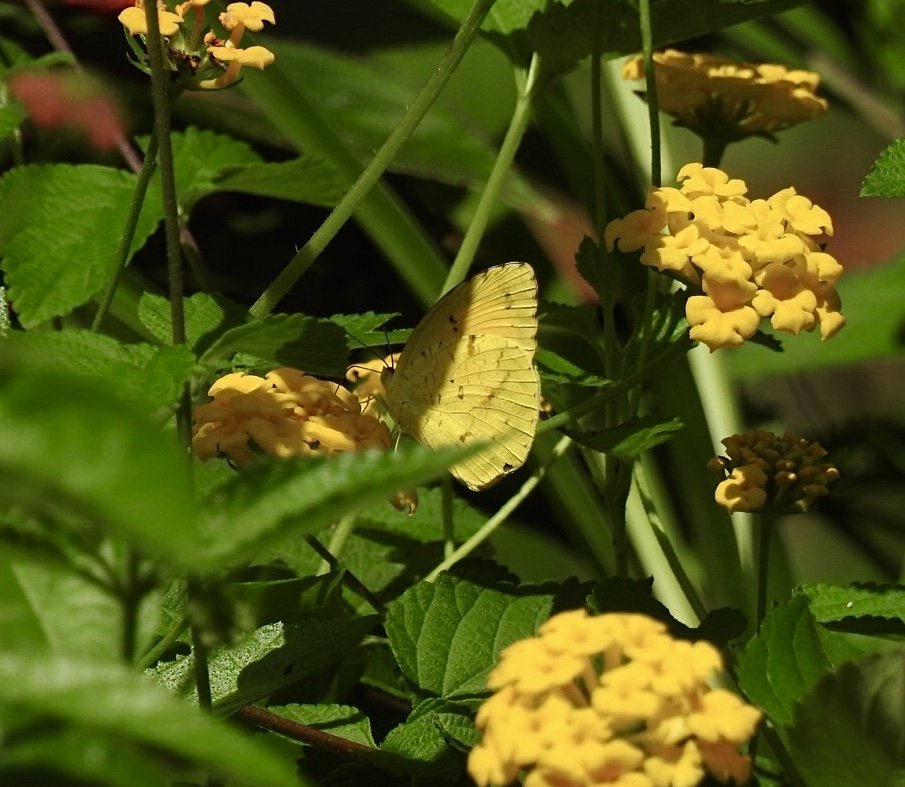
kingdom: Animalia
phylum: Arthropoda
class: Insecta
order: Lepidoptera
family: Pieridae
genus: Abaeis
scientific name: Abaeis nicippe
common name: Sleepy Orange
